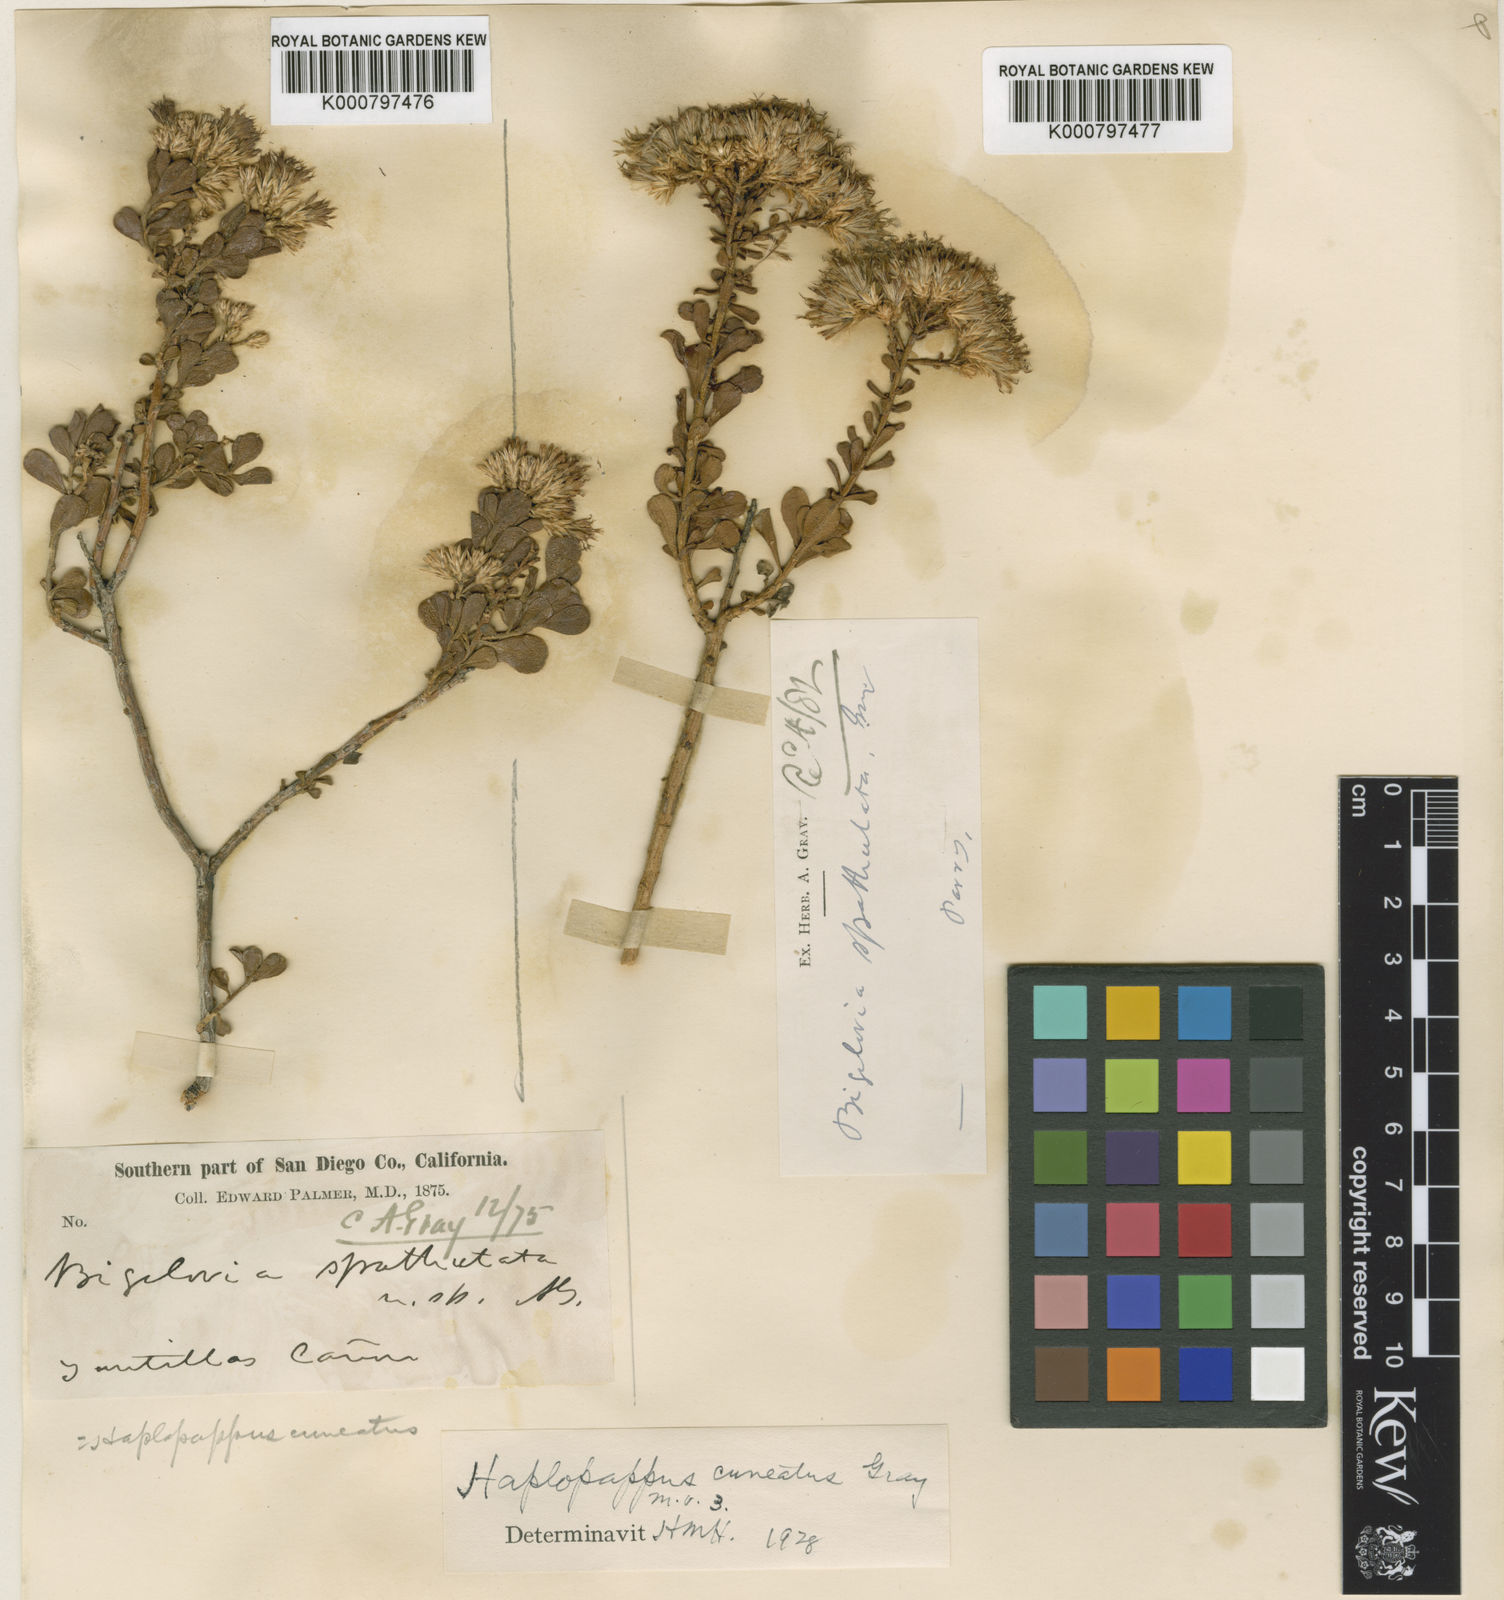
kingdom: Plantae
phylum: Tracheophyta
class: Magnoliopsida
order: Asterales
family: Asteraceae
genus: Ericameria
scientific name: Ericameria cuneata
